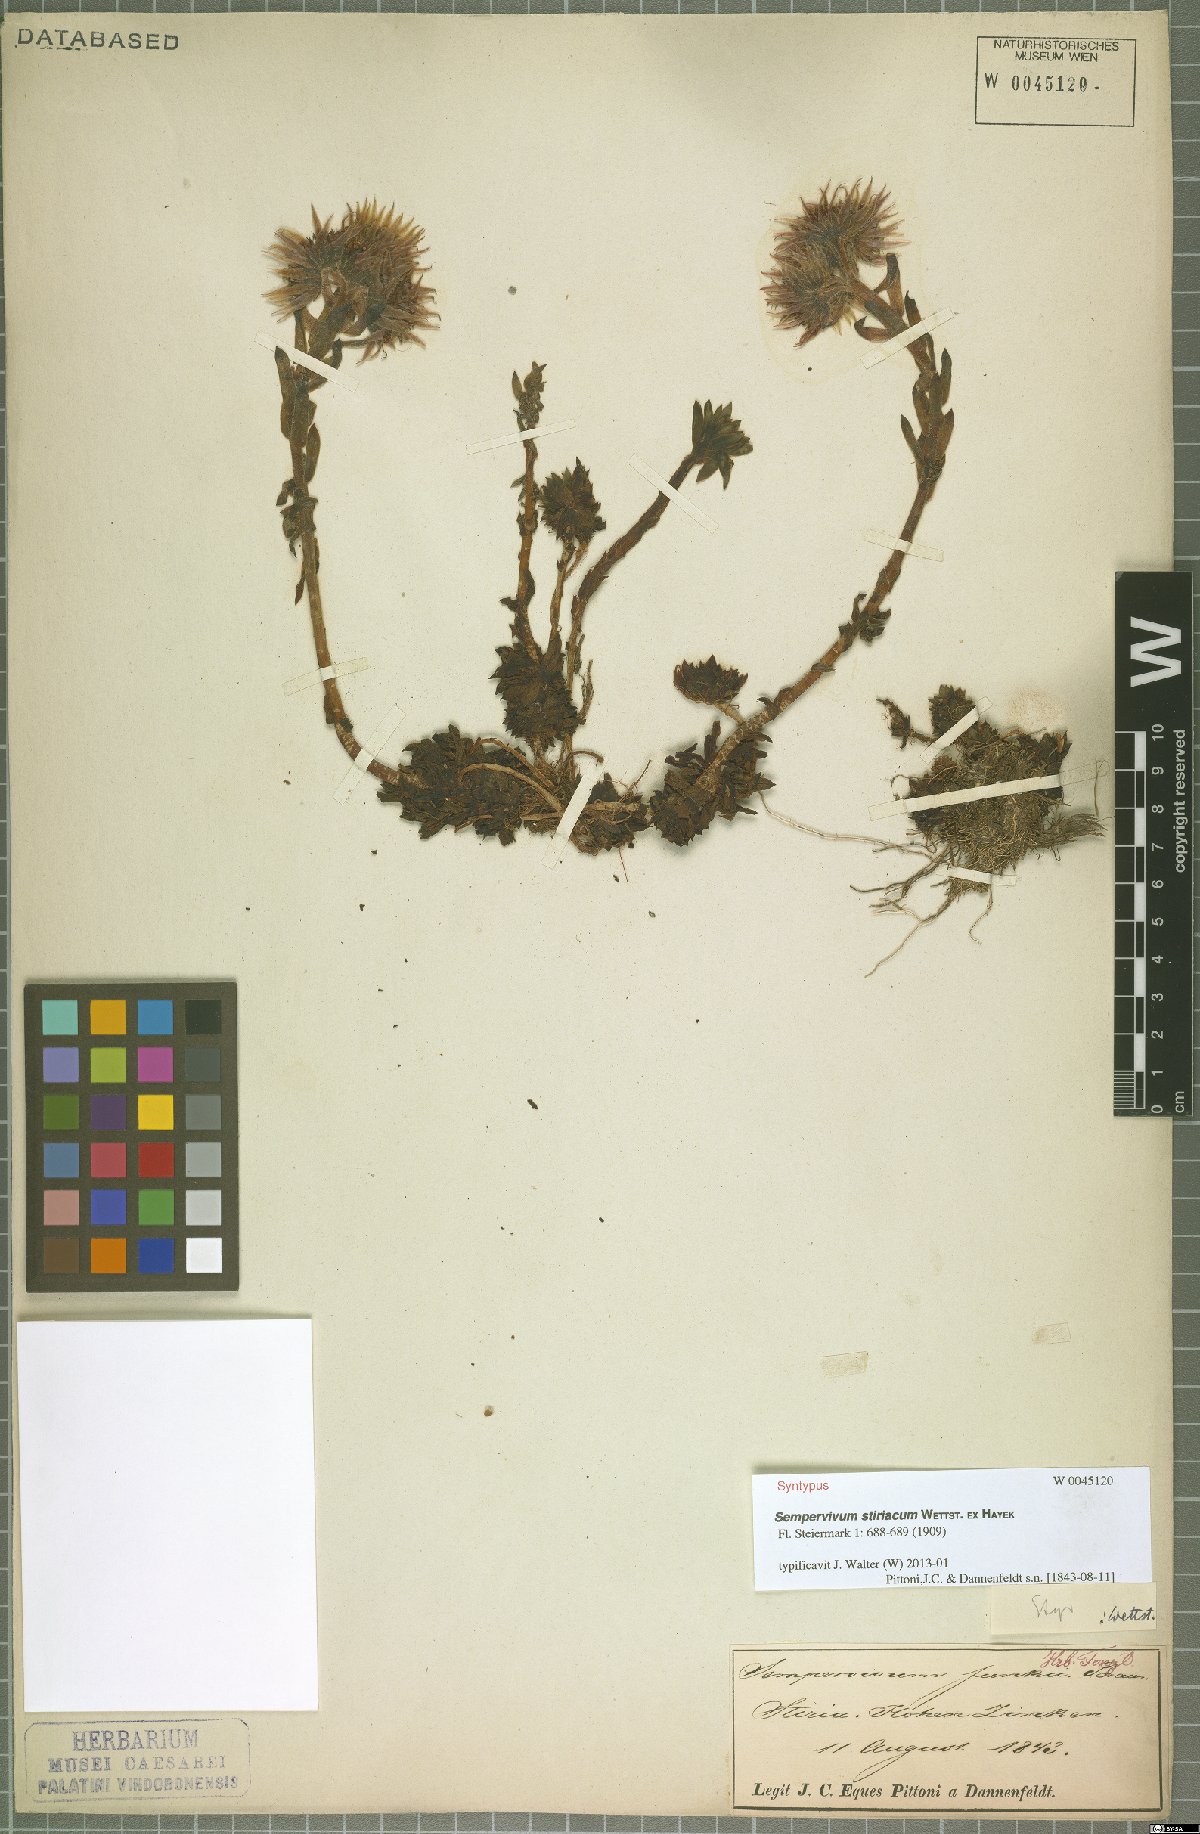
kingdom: Plantae
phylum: Tracheophyta
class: Magnoliopsida
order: Saxifragales
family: Crassulaceae
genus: Sempervivum
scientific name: Sempervivum montanum
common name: Mountain house-leek
